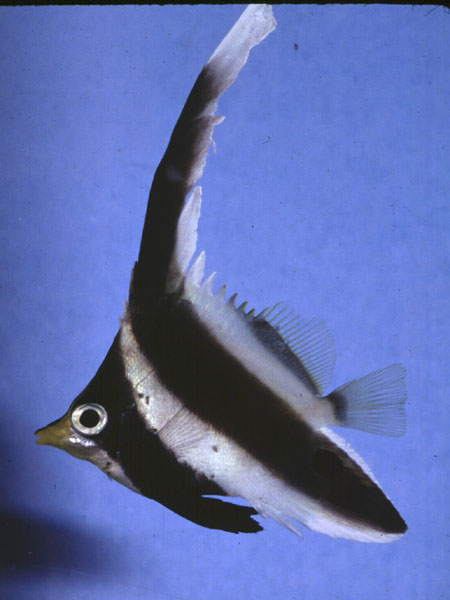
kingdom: Animalia
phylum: Chordata
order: Perciformes
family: Chaetodontidae
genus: Heniochus
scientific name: Heniochus chrysostomus
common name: Horned bannerfish
